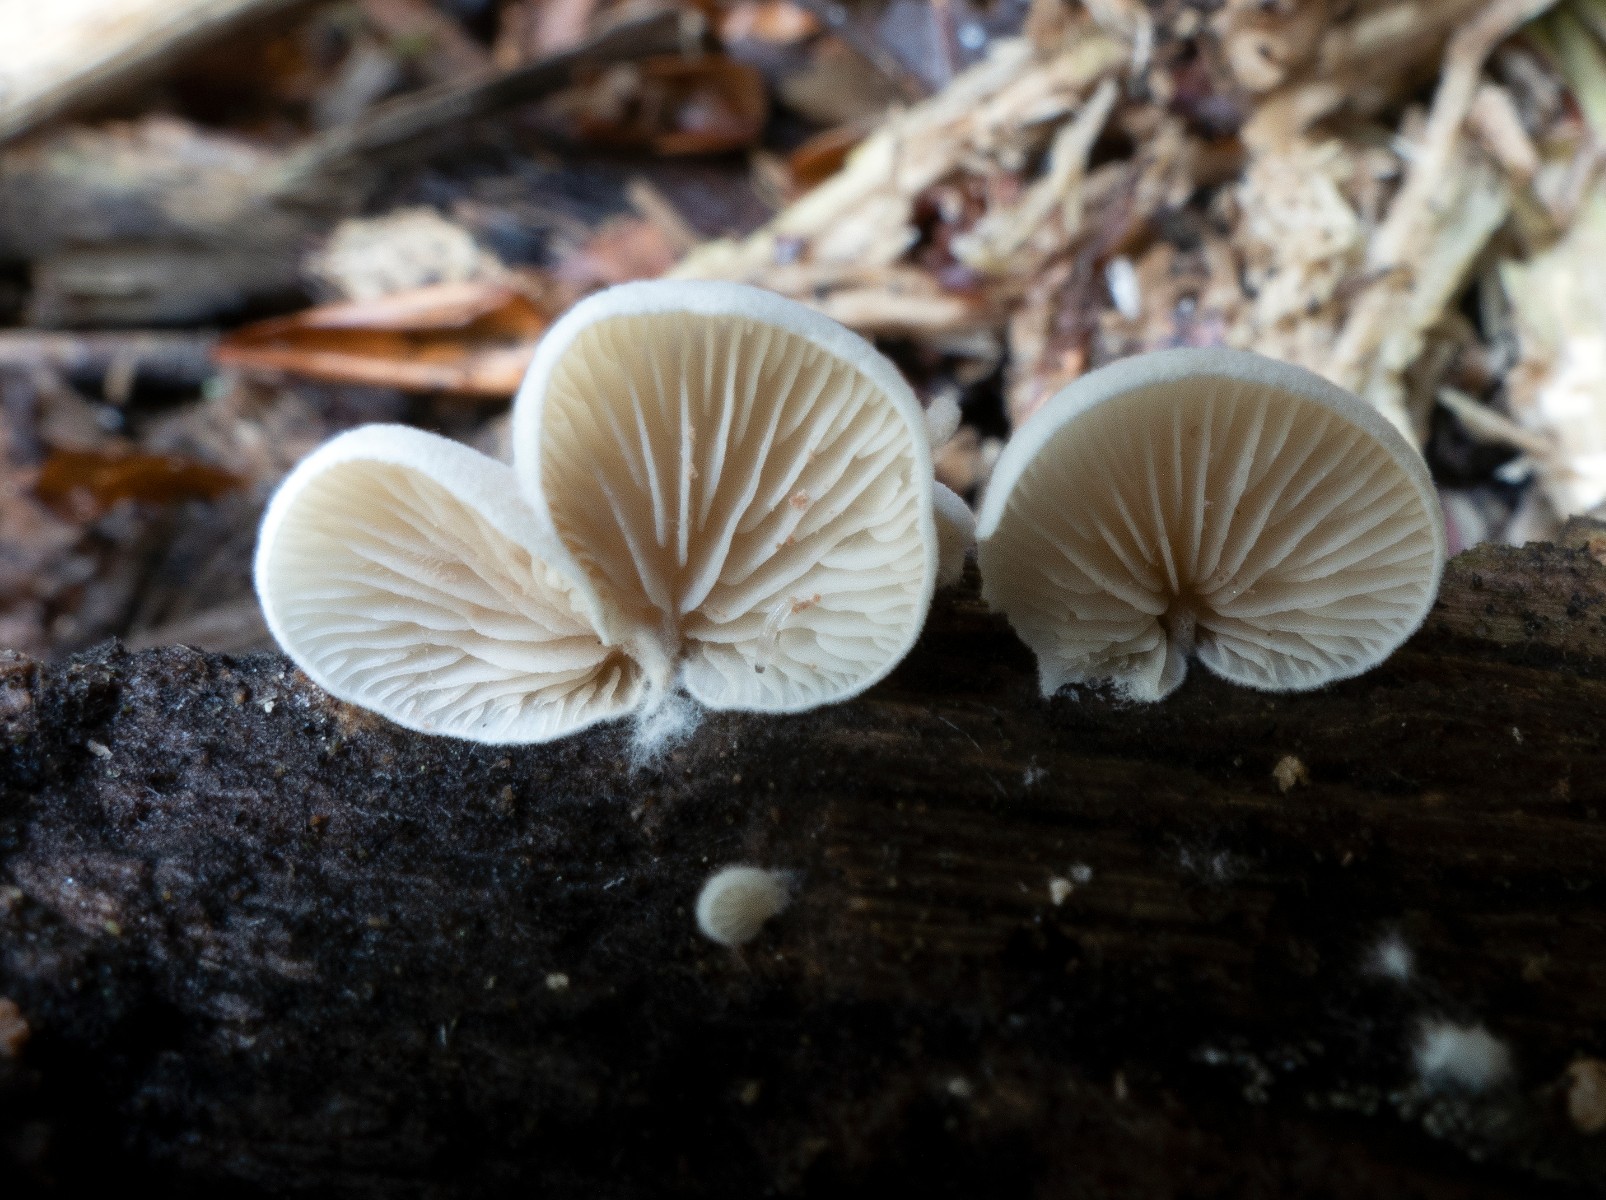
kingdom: Fungi
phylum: Basidiomycota
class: Agaricomycetes
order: Agaricales
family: Entolomataceae
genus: Clitopilus
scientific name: Clitopilus hobsonii
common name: Miller's oysterling
